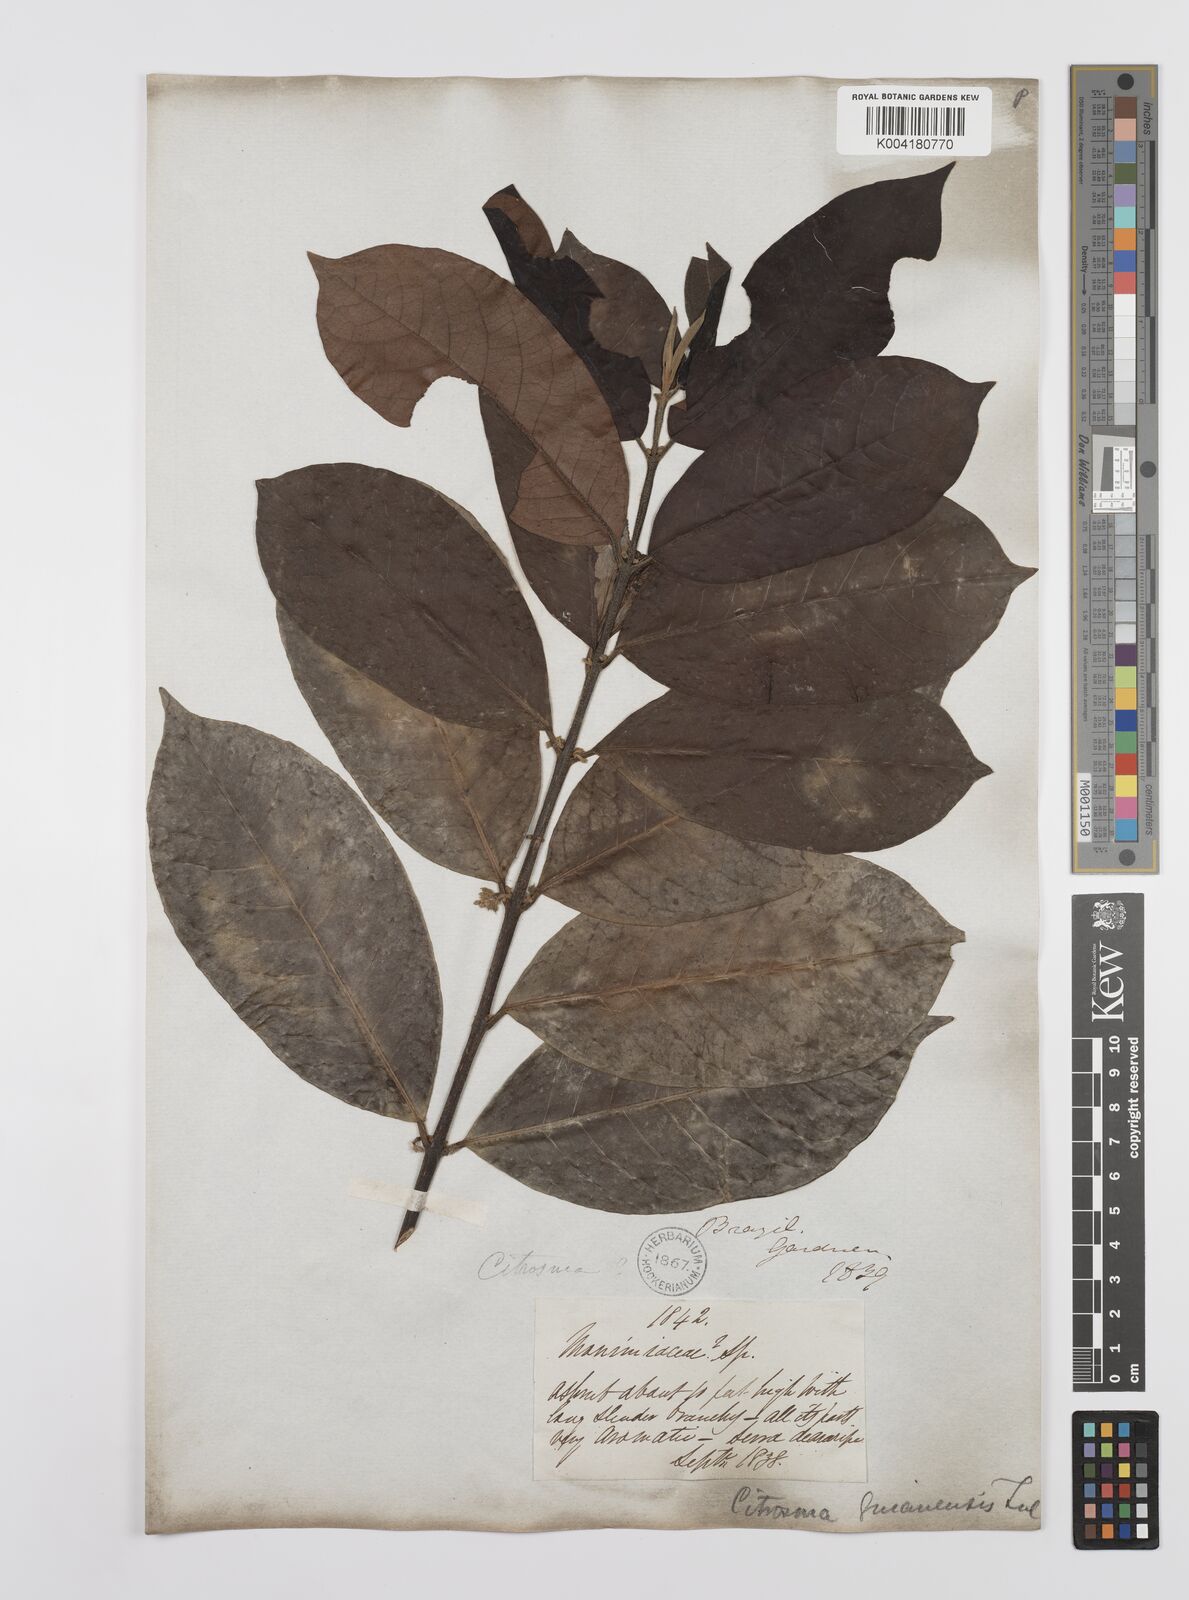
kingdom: Plantae
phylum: Tracheophyta
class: Magnoliopsida
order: Laurales
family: Siparunaceae
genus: Siparuna
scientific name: Siparuna guianensis
